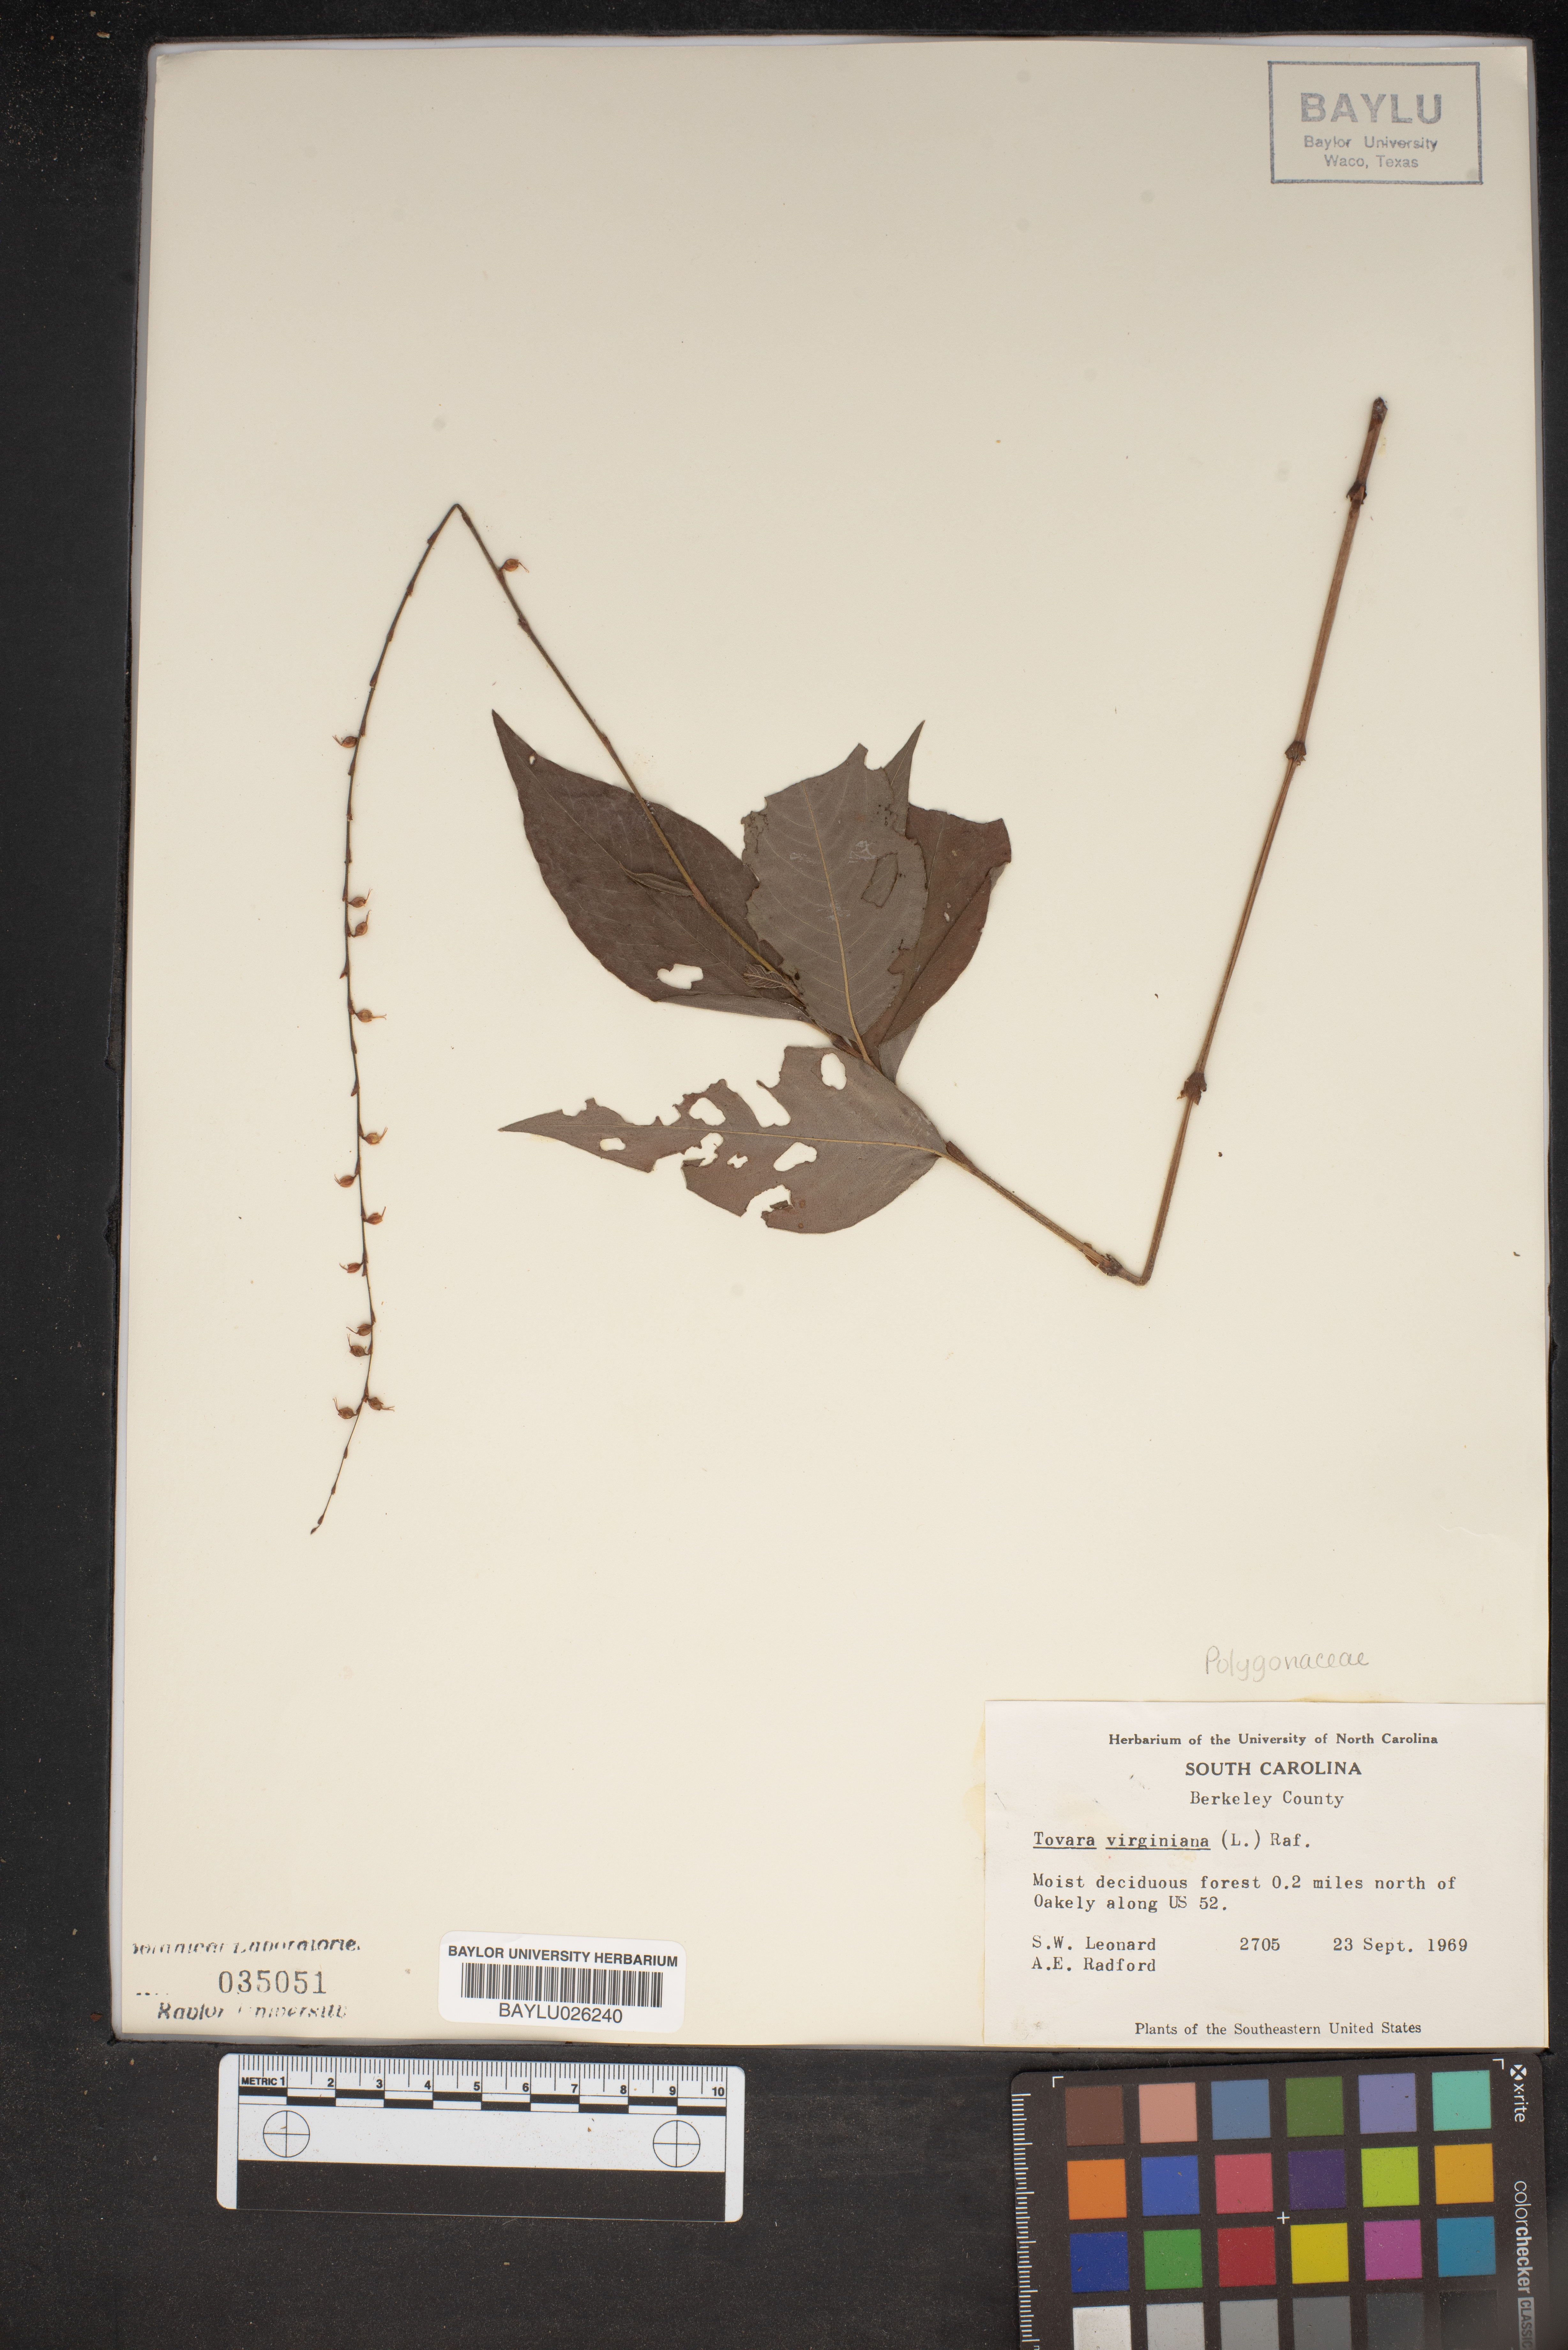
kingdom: Plantae
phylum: Tracheophyta
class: Magnoliopsida
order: Caryophyllales
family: Polygonaceae
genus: Persicaria
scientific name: Persicaria virginiana
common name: Jumpseed
